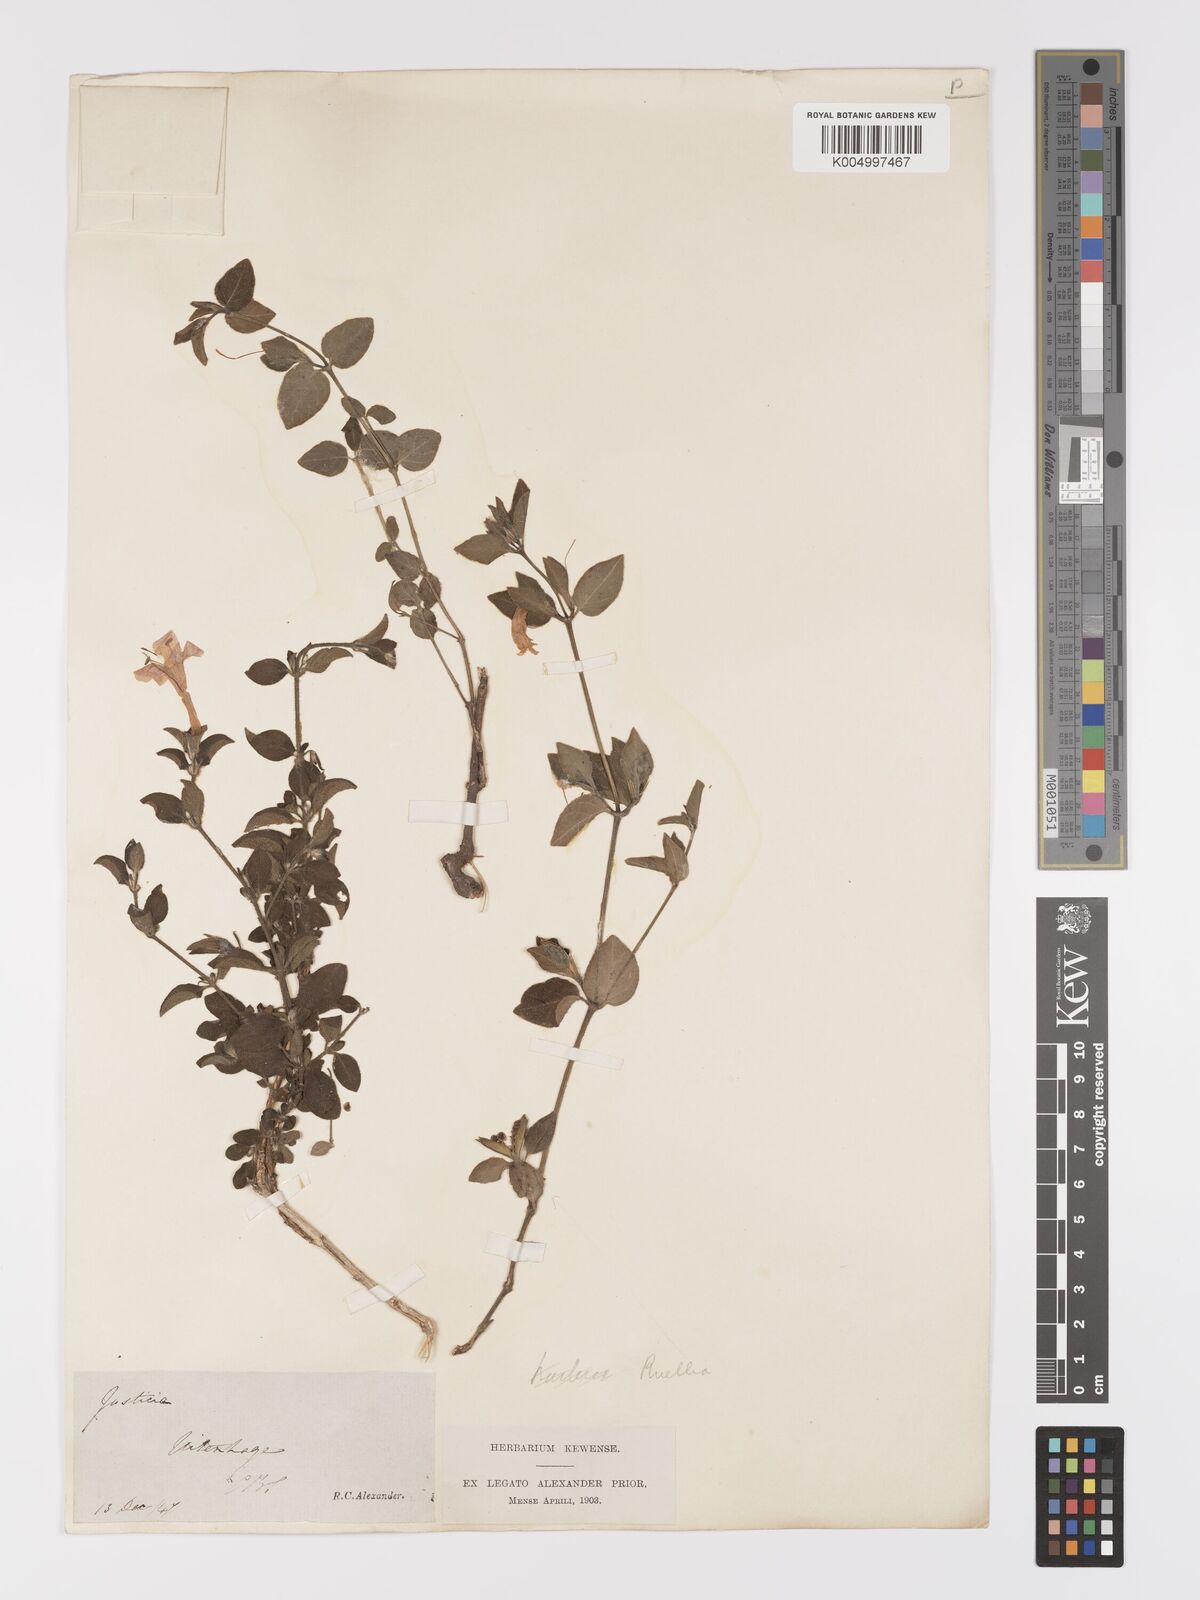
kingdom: Plantae
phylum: Tracheophyta
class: Magnoliopsida
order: Lamiales
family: Acanthaceae
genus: Ruellia
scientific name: Ruellia cordata
